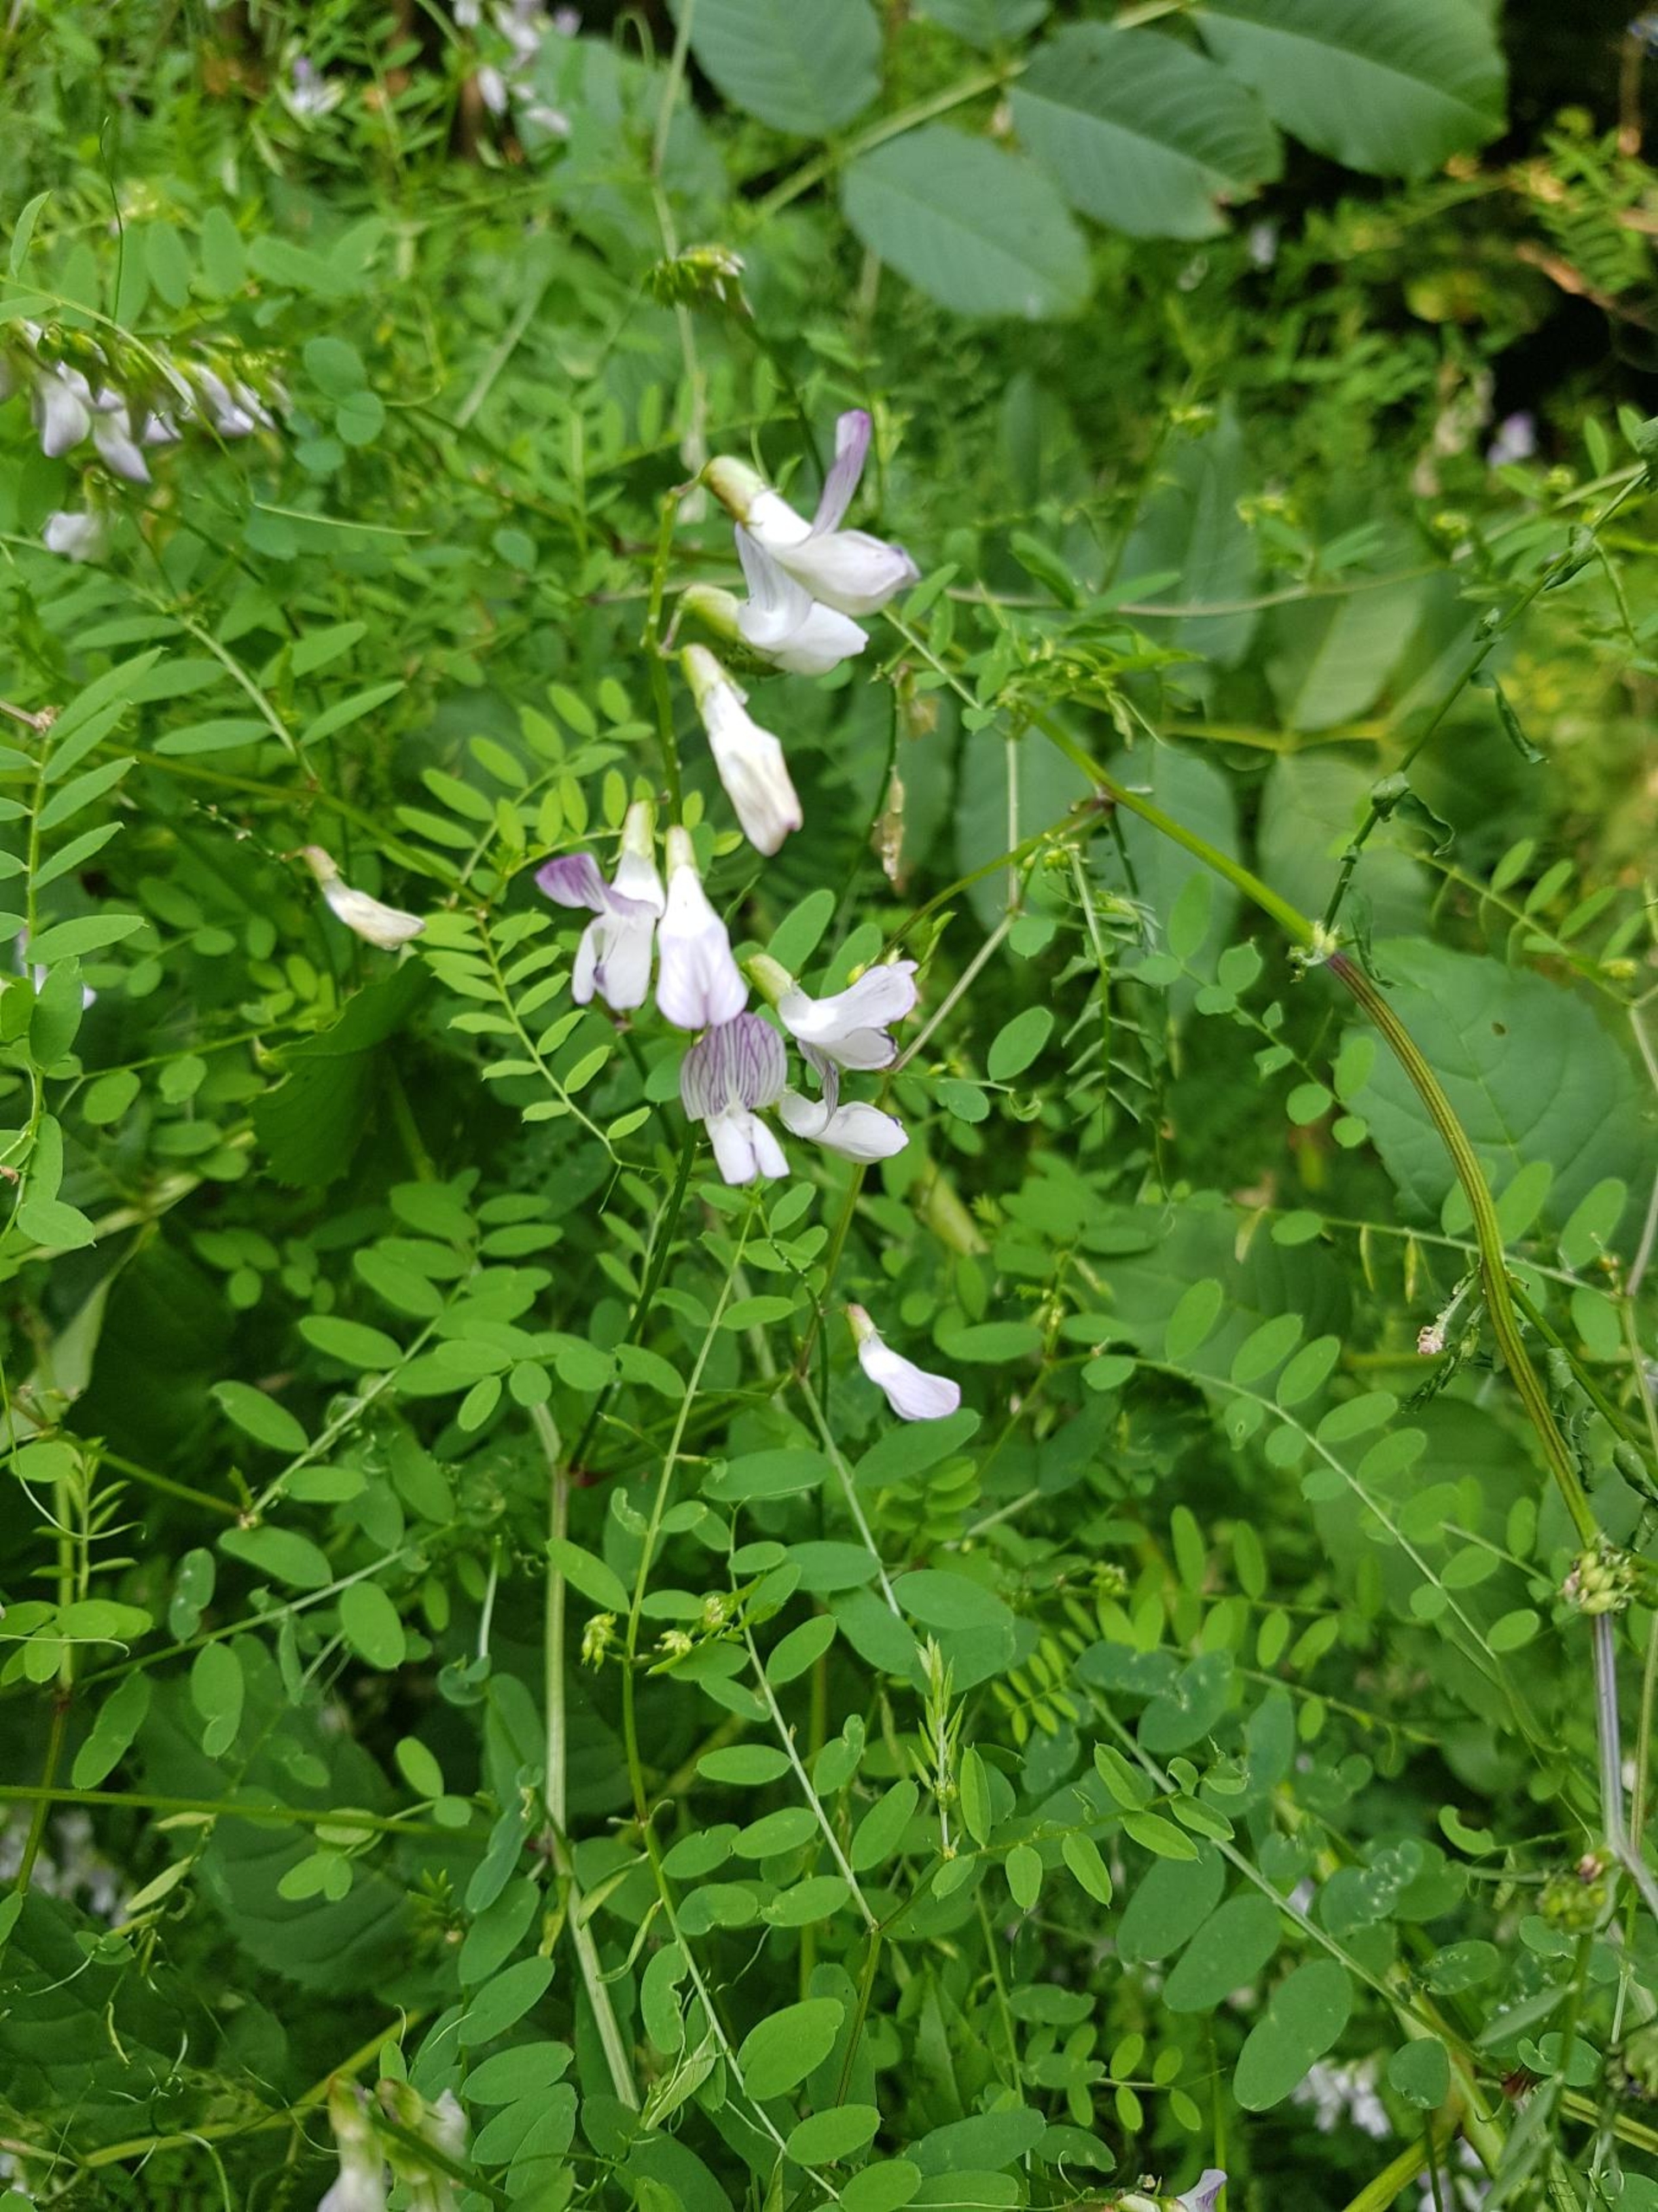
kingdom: Plantae
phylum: Tracheophyta
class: Magnoliopsida
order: Fabales
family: Fabaceae
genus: Vicia
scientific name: Vicia sylvatica
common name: Skov-vikke
